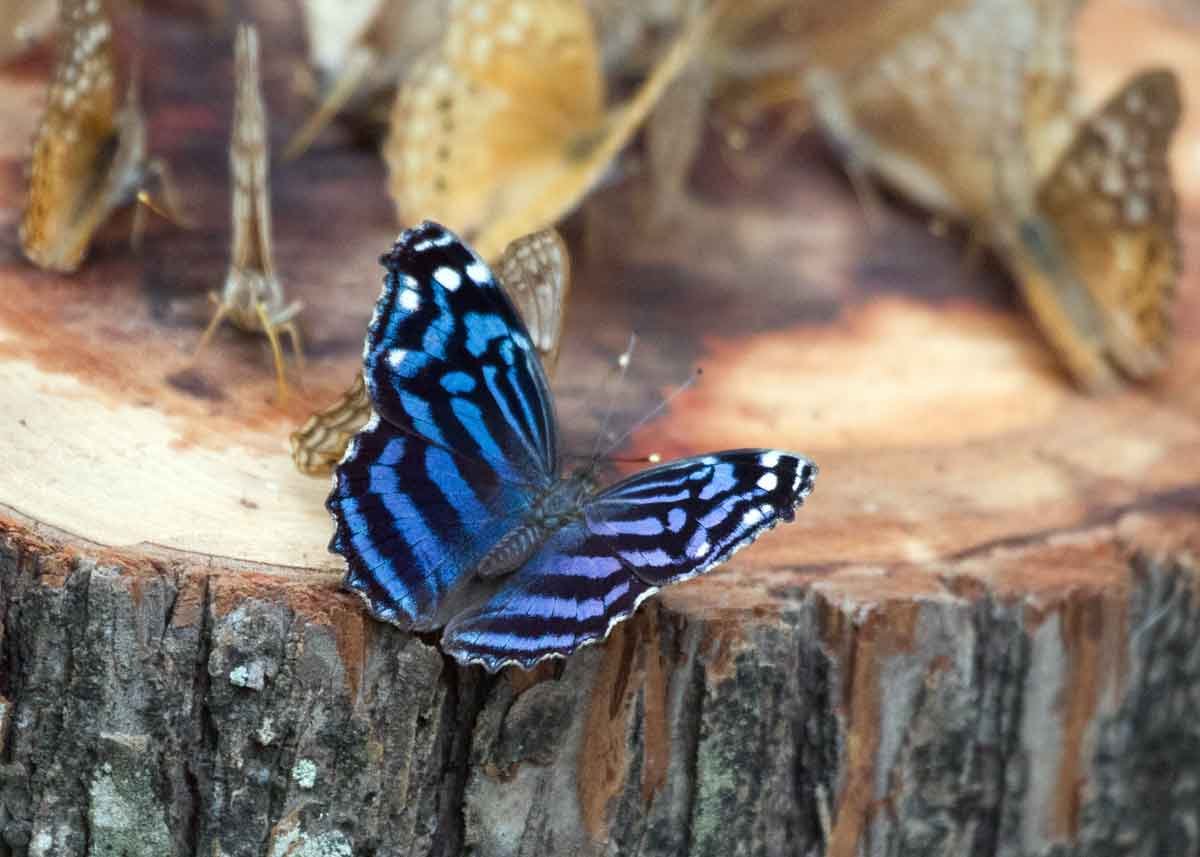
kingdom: Animalia
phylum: Arthropoda
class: Insecta
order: Lepidoptera
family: Nymphalidae
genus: Myscelia
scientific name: Myscelia ethusa
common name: Mexican Bluewing
